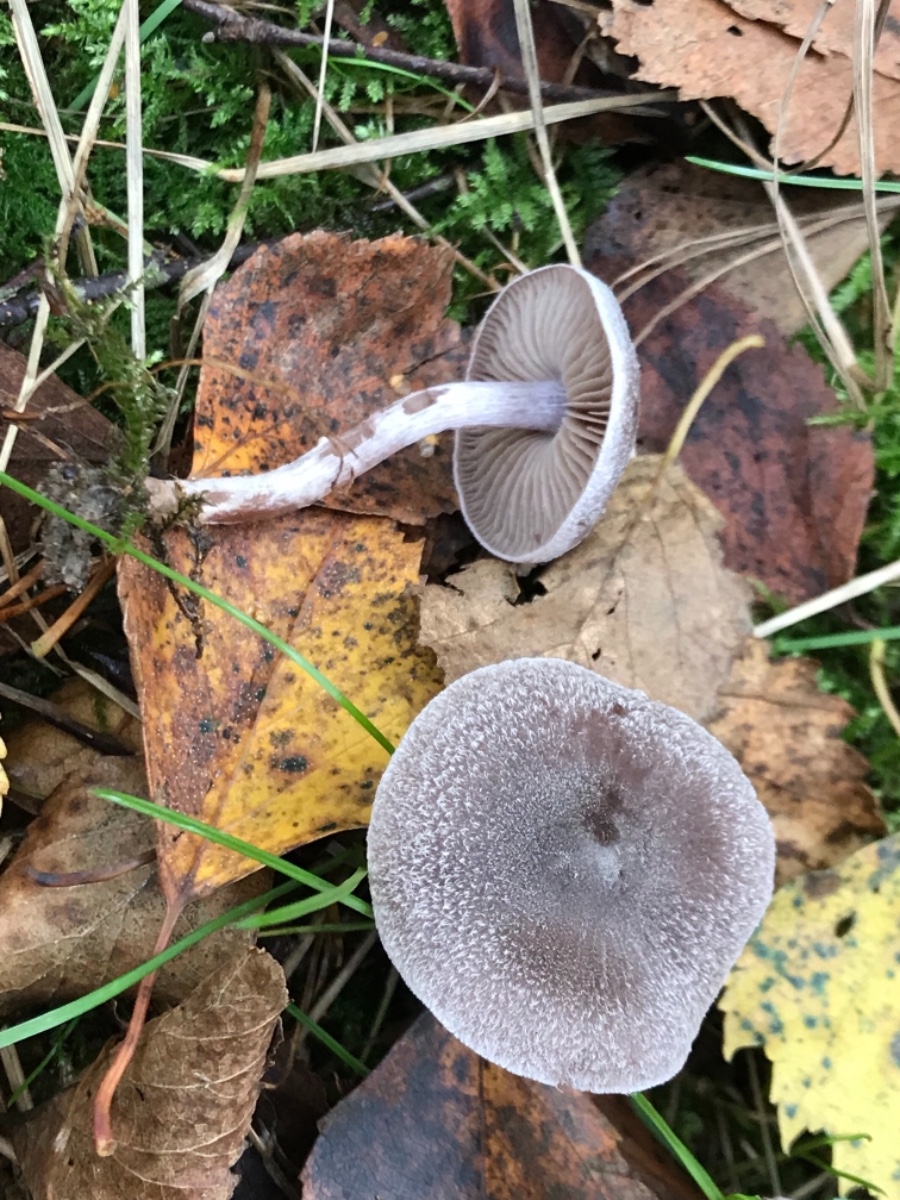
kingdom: Fungi
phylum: Basidiomycota
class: Agaricomycetes
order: Agaricales
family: Cortinariaceae
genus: Cortinarius
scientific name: Cortinarius hemitrichus
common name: hvidfnugget slørhat
